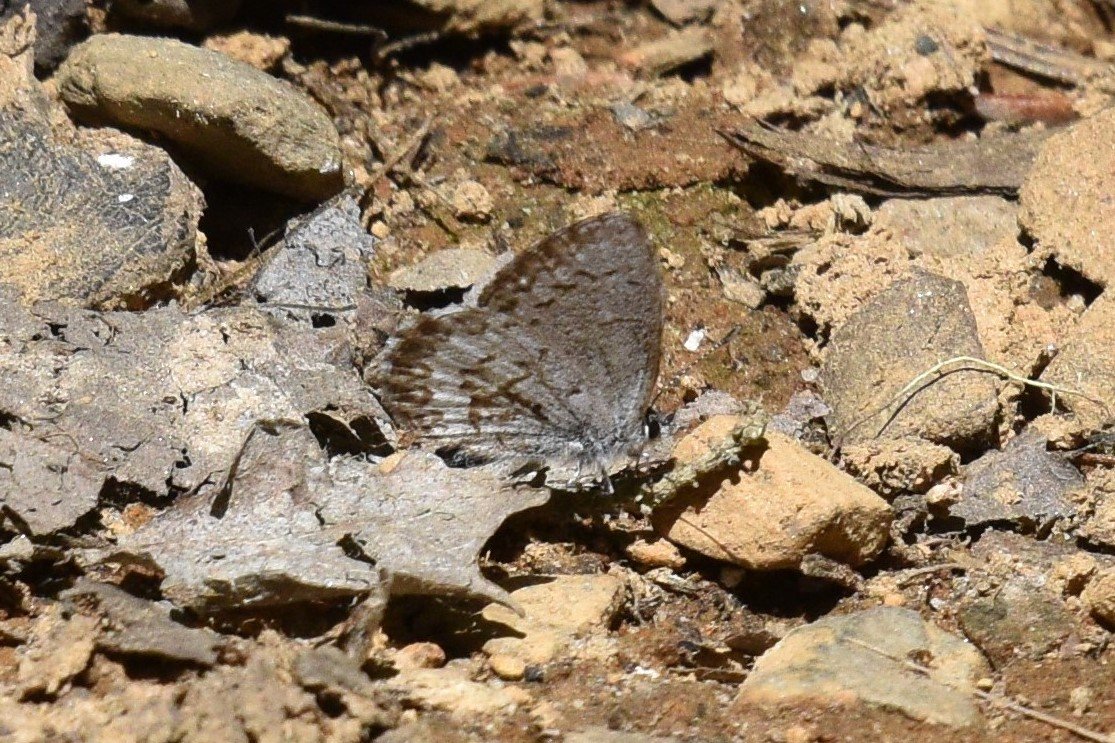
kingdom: Animalia
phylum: Arthropoda
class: Insecta
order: Lepidoptera
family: Lycaenidae
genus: Celastrina
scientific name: Celastrina lucia
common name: Northern Spring Azure
